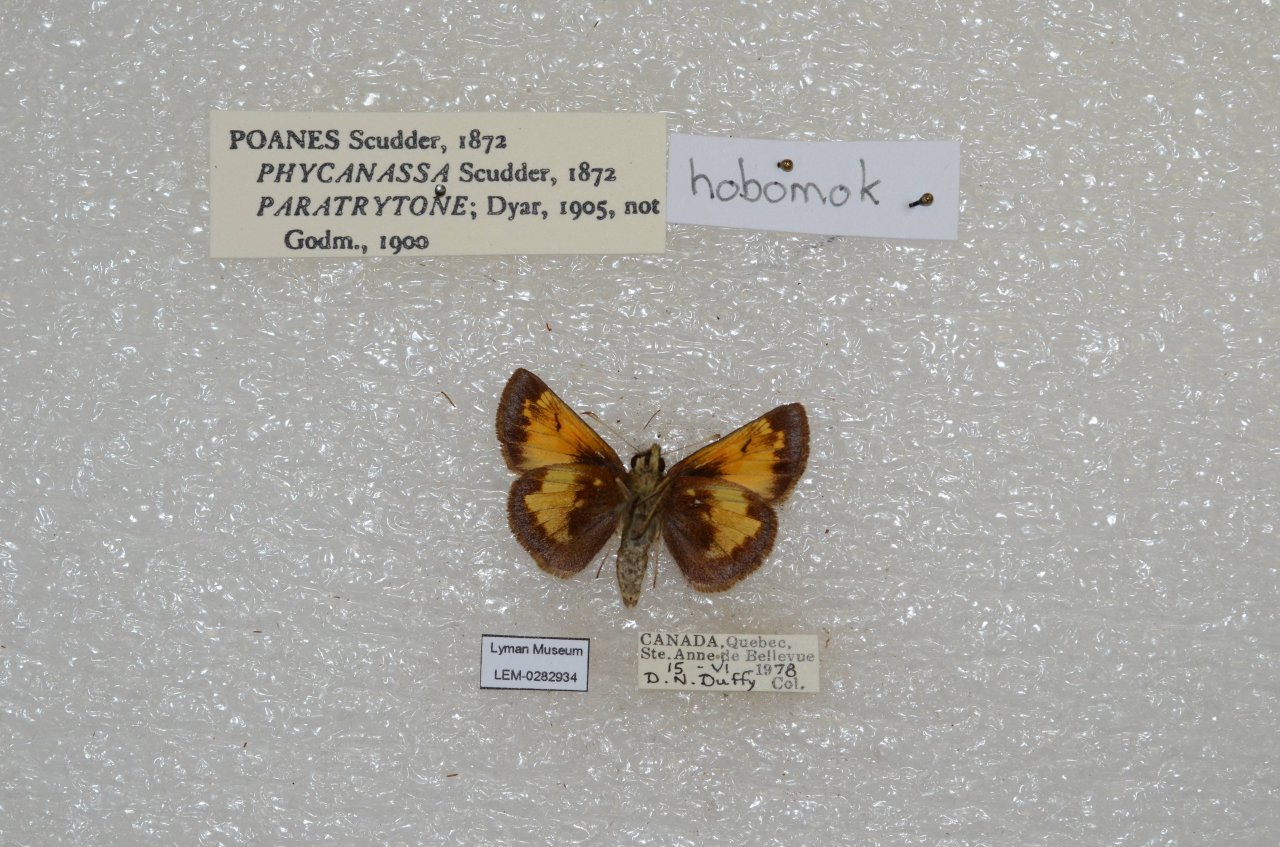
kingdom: Animalia
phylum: Arthropoda
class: Insecta
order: Lepidoptera
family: Hesperiidae
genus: Lon
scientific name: Lon hobomok
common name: Hobomok Skipper
